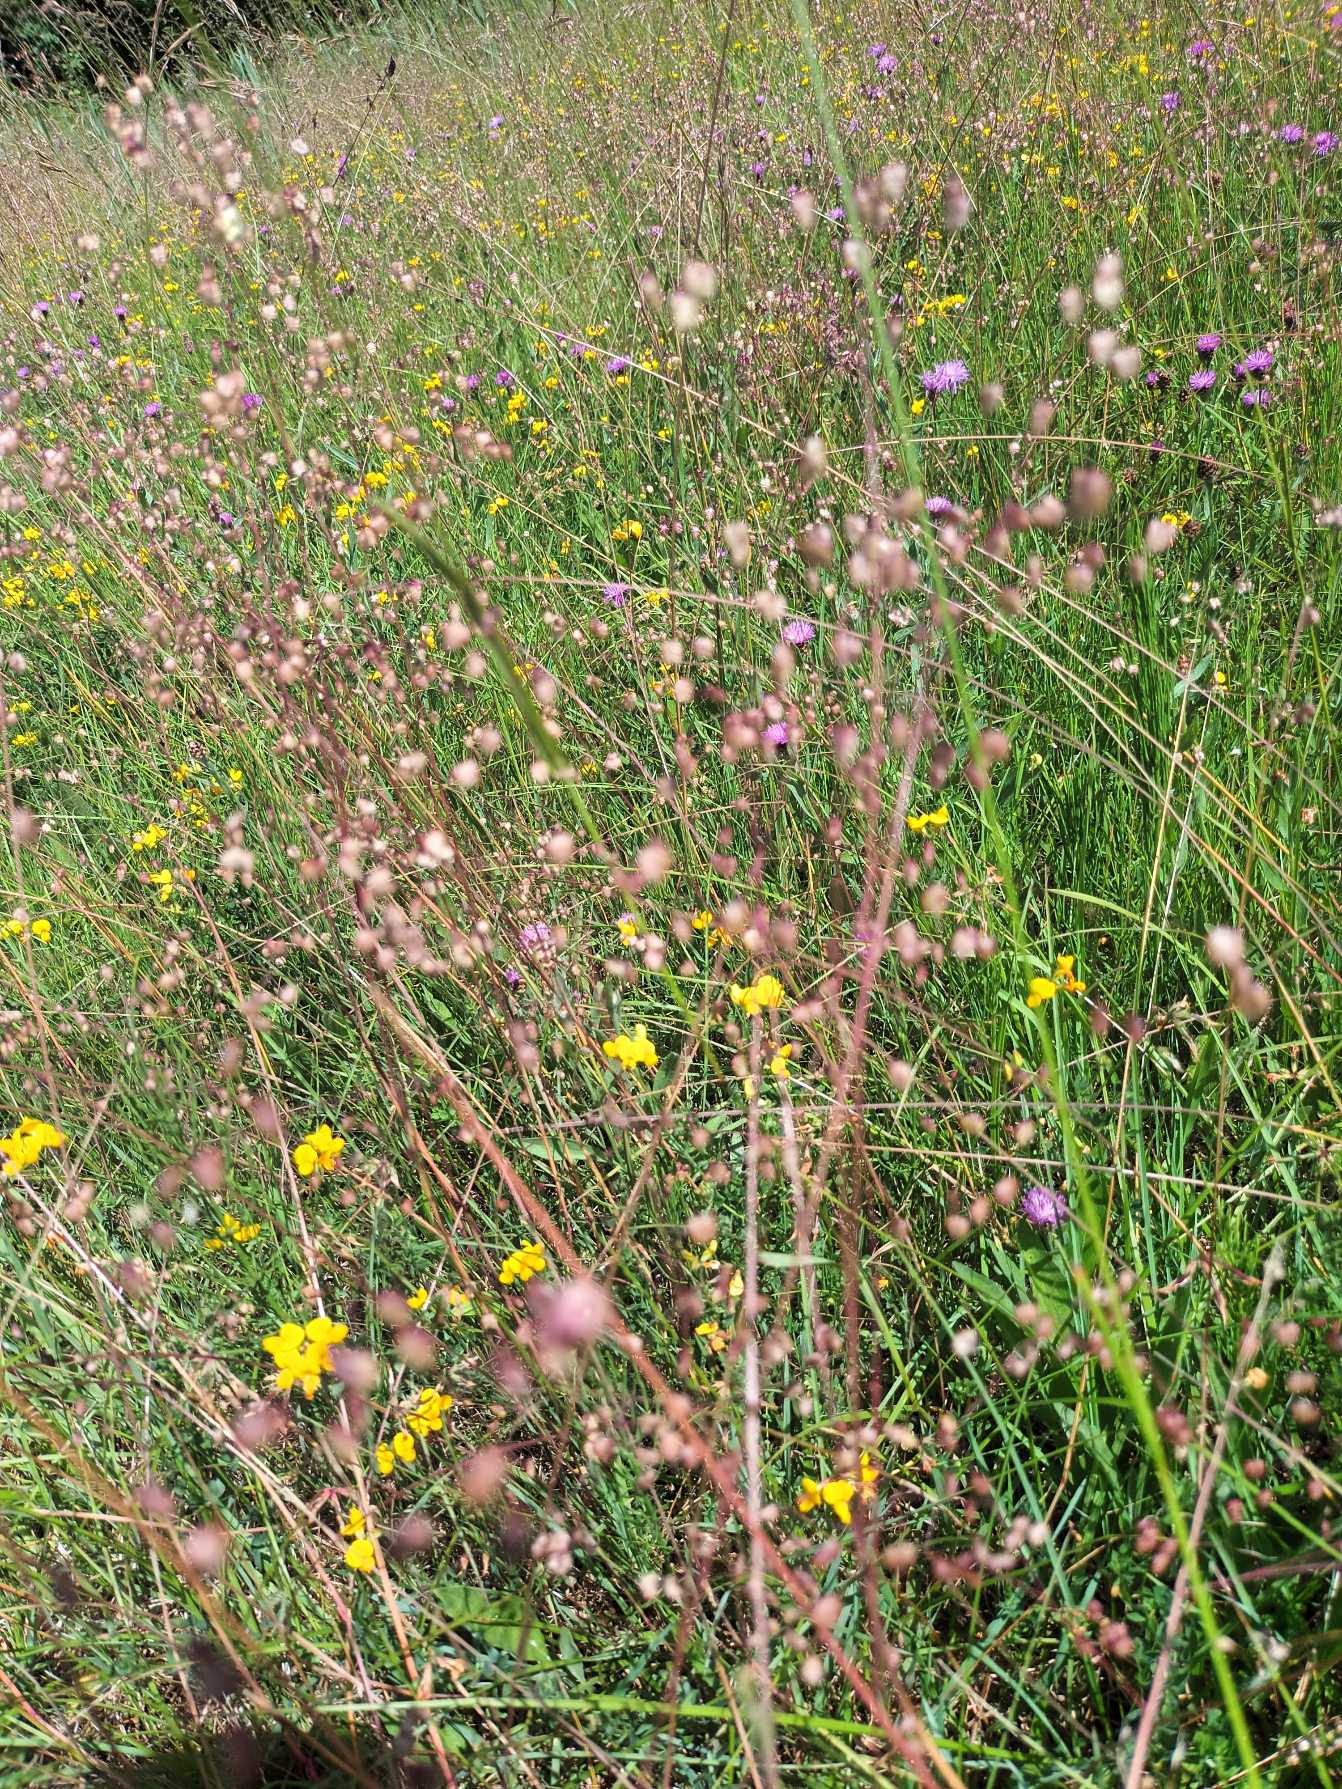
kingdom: Plantae
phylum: Tracheophyta
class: Liliopsida
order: Poales
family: Poaceae
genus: Briza
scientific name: Briza media
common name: Hjertegræs
